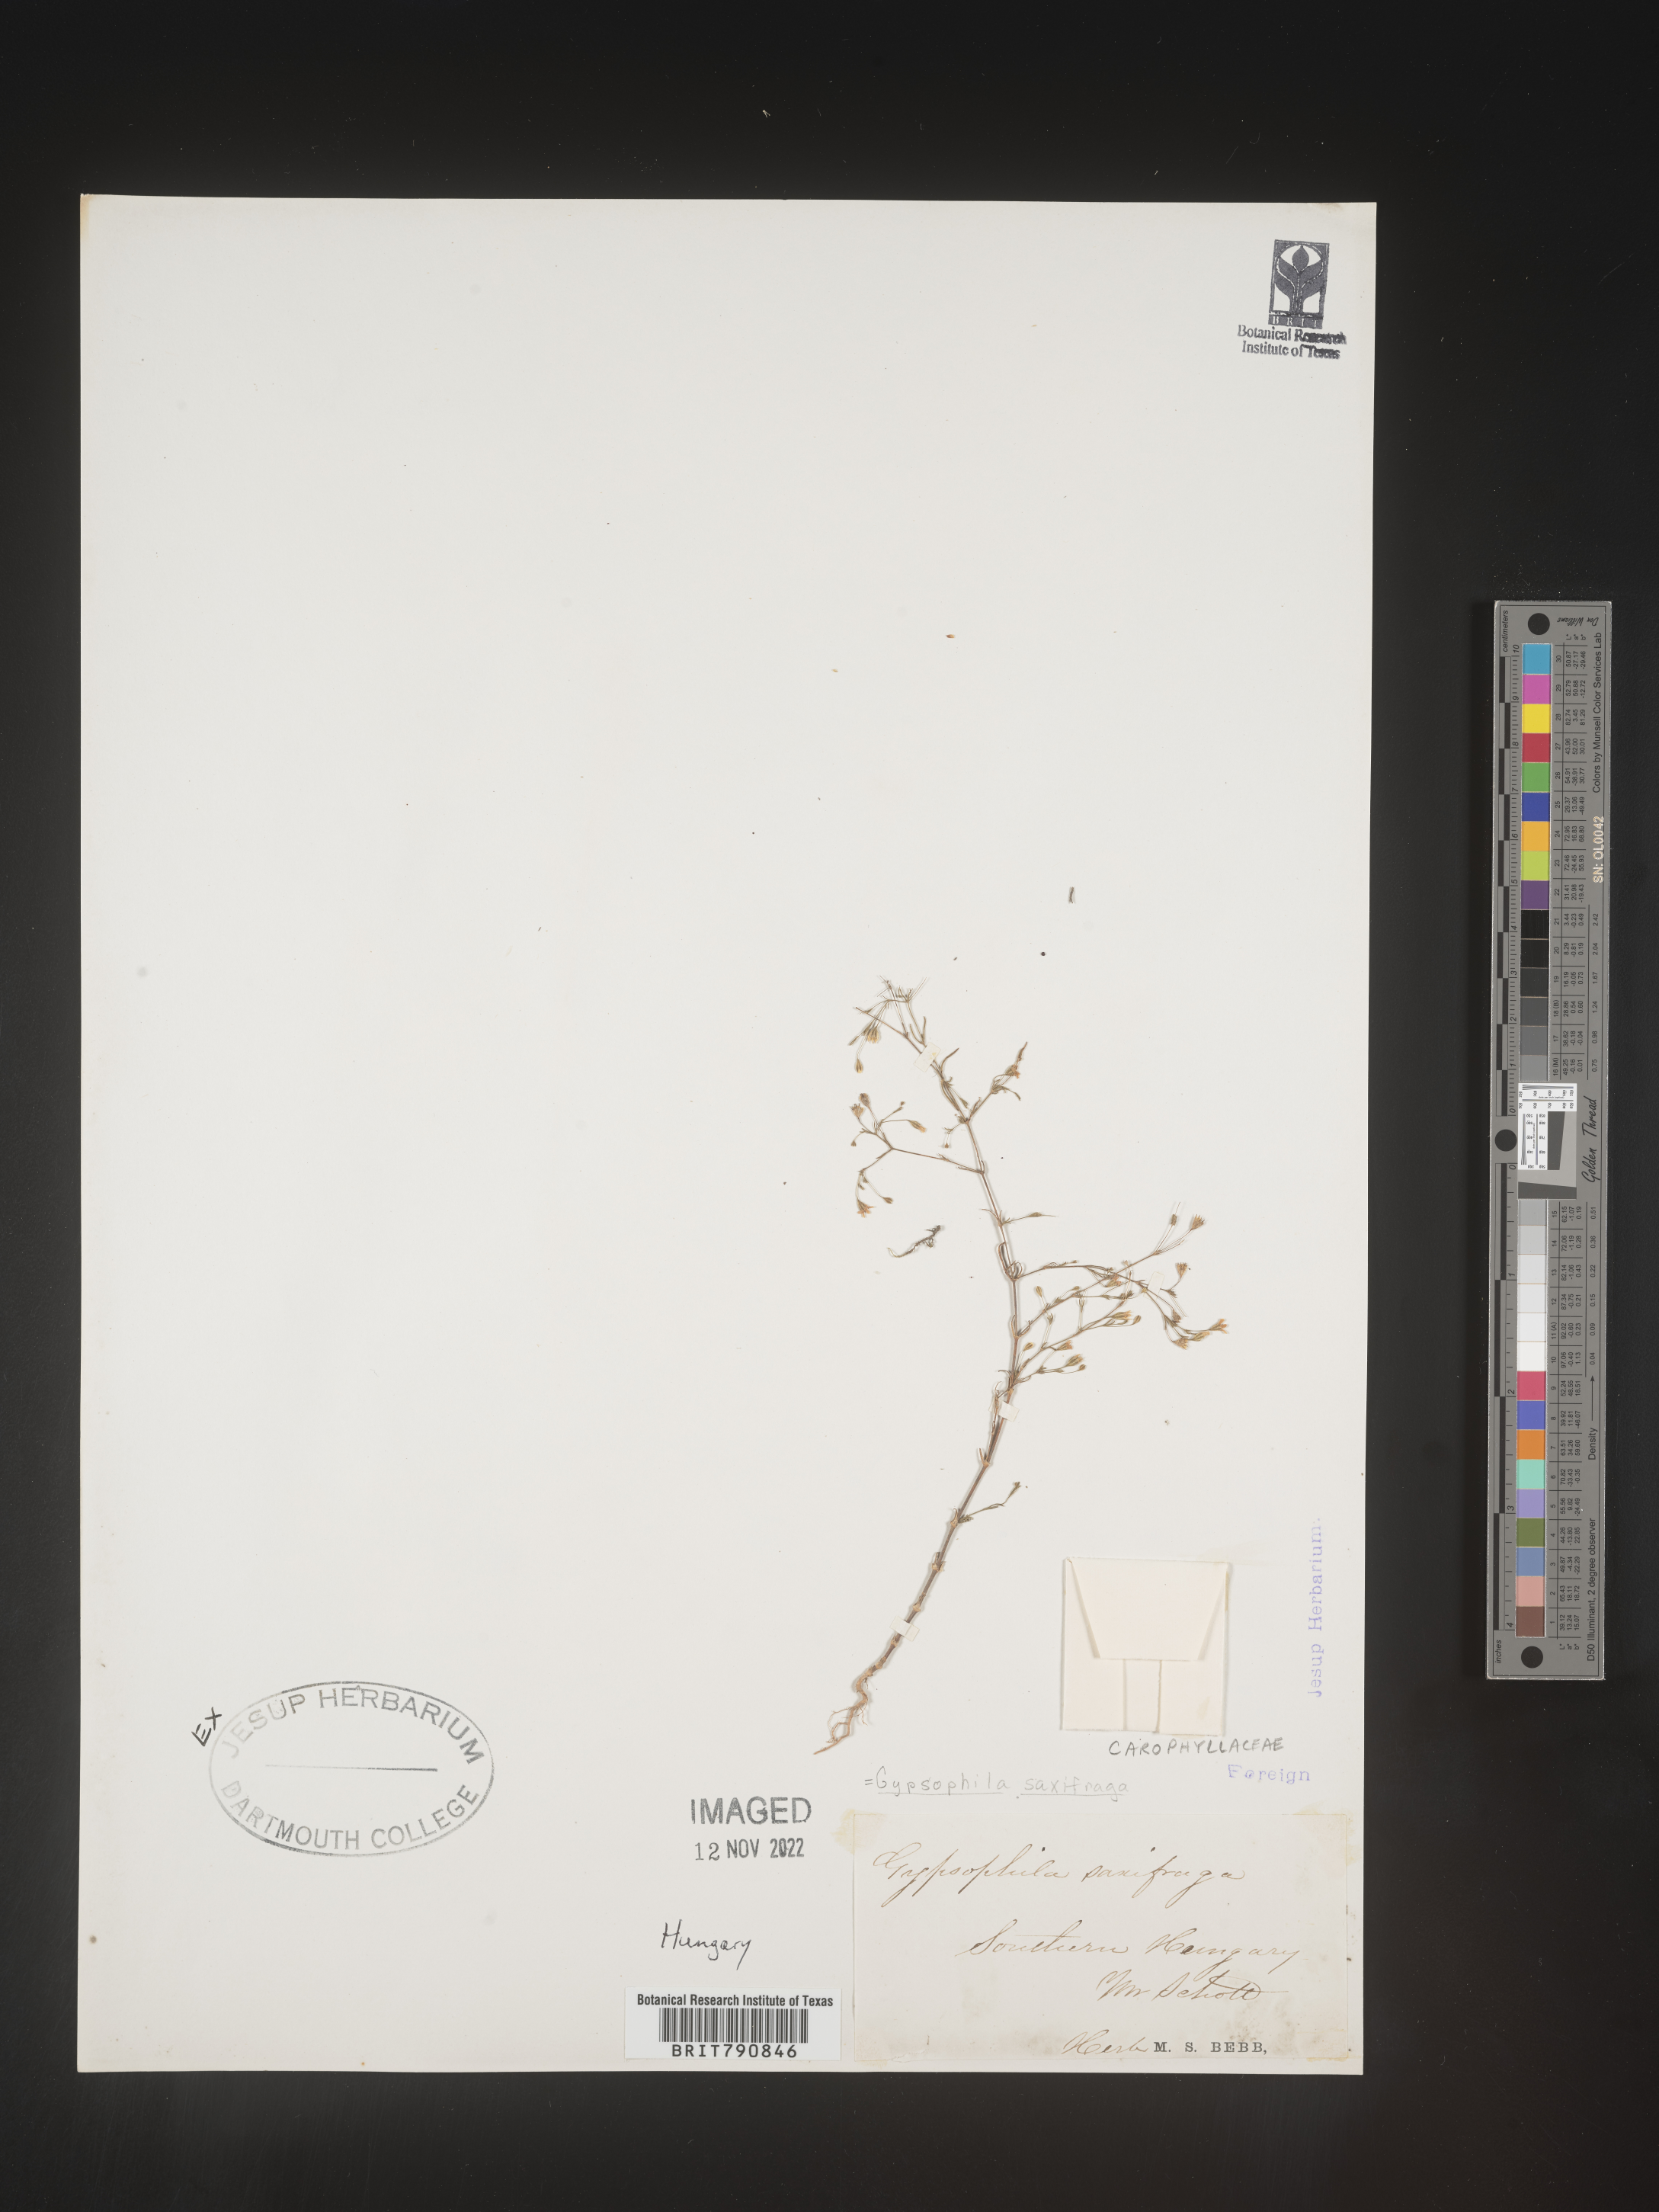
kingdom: Plantae
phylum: Tracheophyta
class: Magnoliopsida
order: Caryophyllales
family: Caryophyllaceae
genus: Gypsophila
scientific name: Gypsophila
